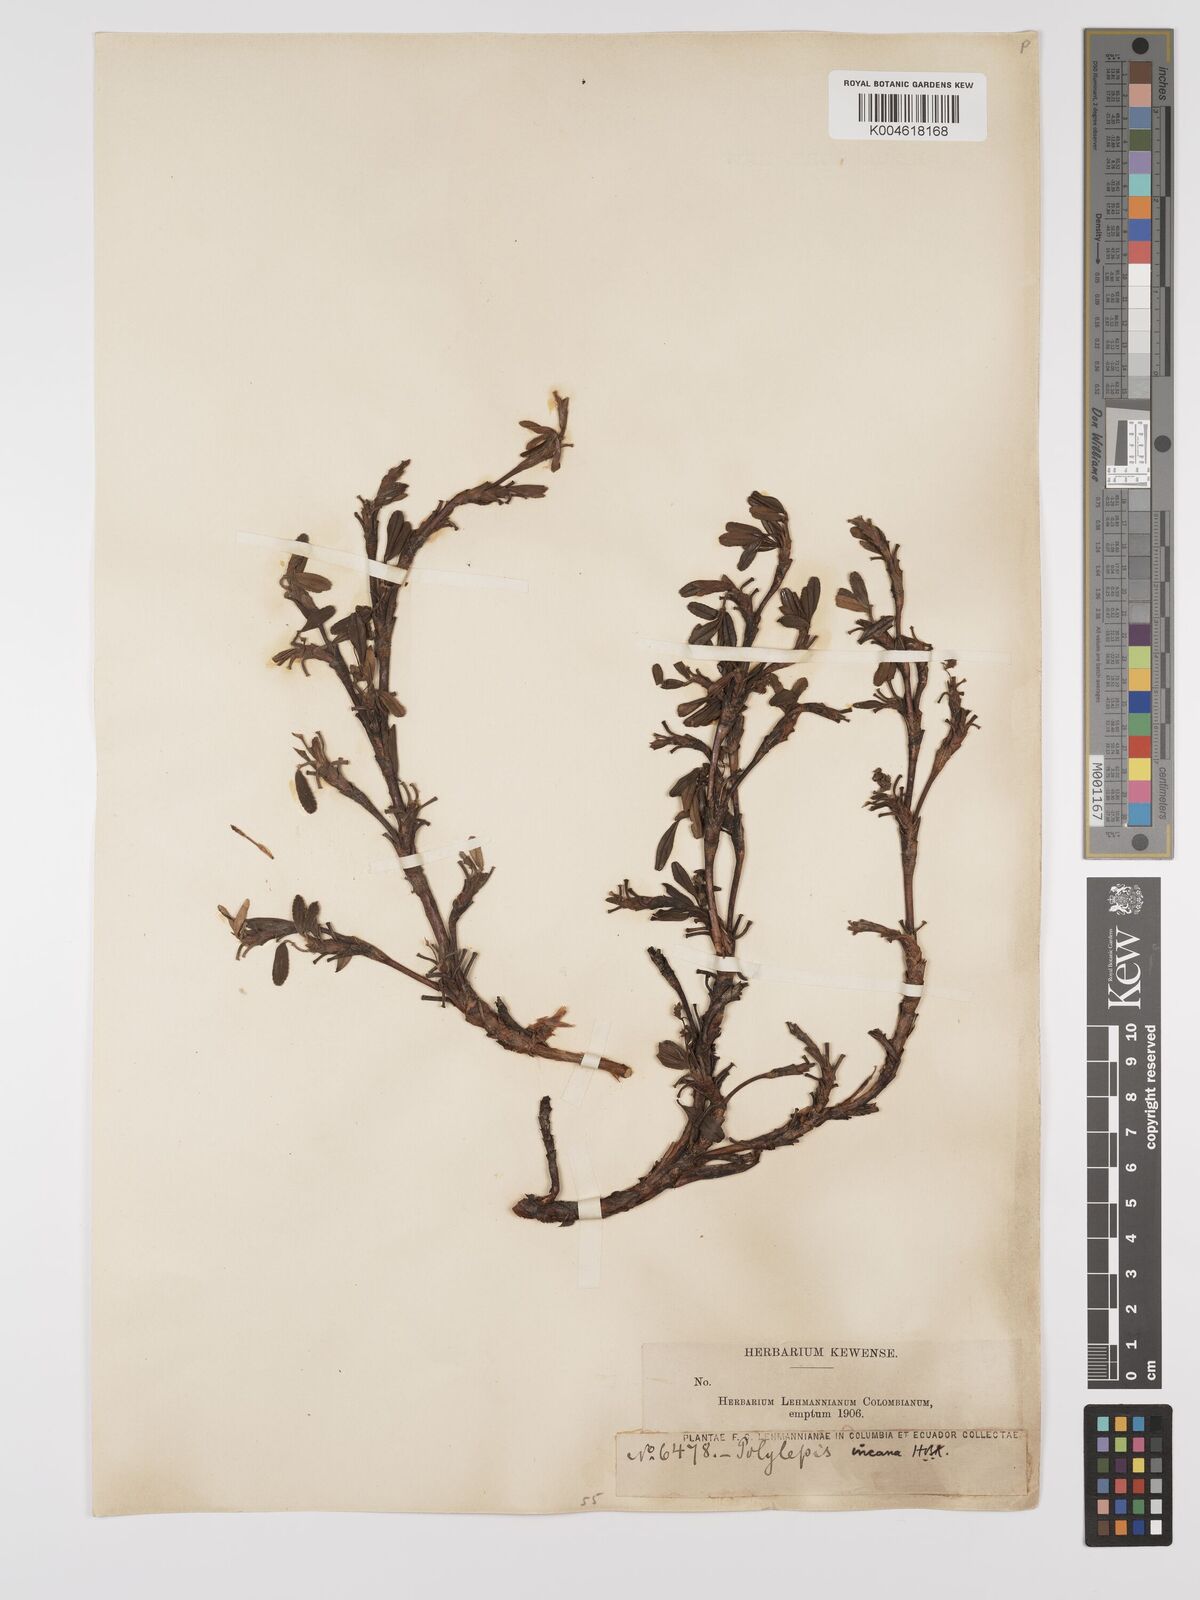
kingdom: Plantae
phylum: Tracheophyta
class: Magnoliopsida
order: Rosales
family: Rosaceae
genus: Polylepis
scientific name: Polylepis incana
